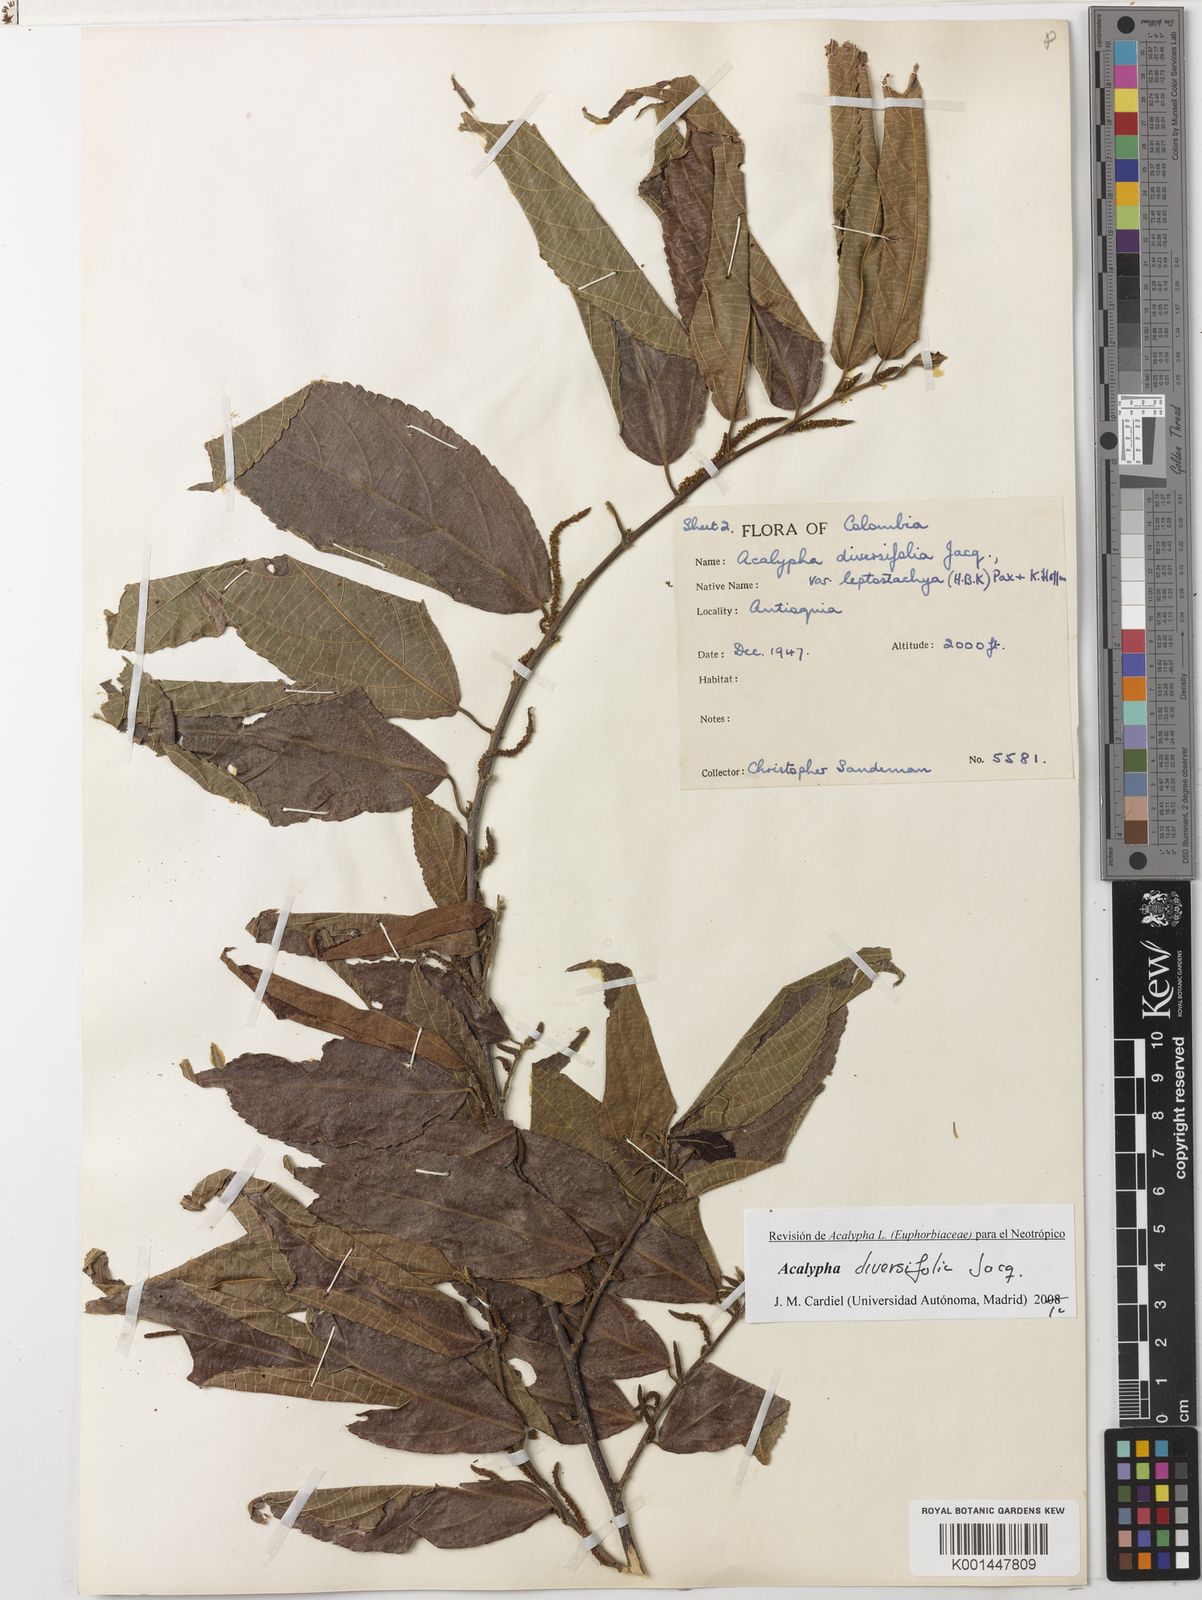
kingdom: Plantae
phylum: Tracheophyta
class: Magnoliopsida
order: Malpighiales
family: Euphorbiaceae
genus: Acalypha
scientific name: Acalypha diversifolia
